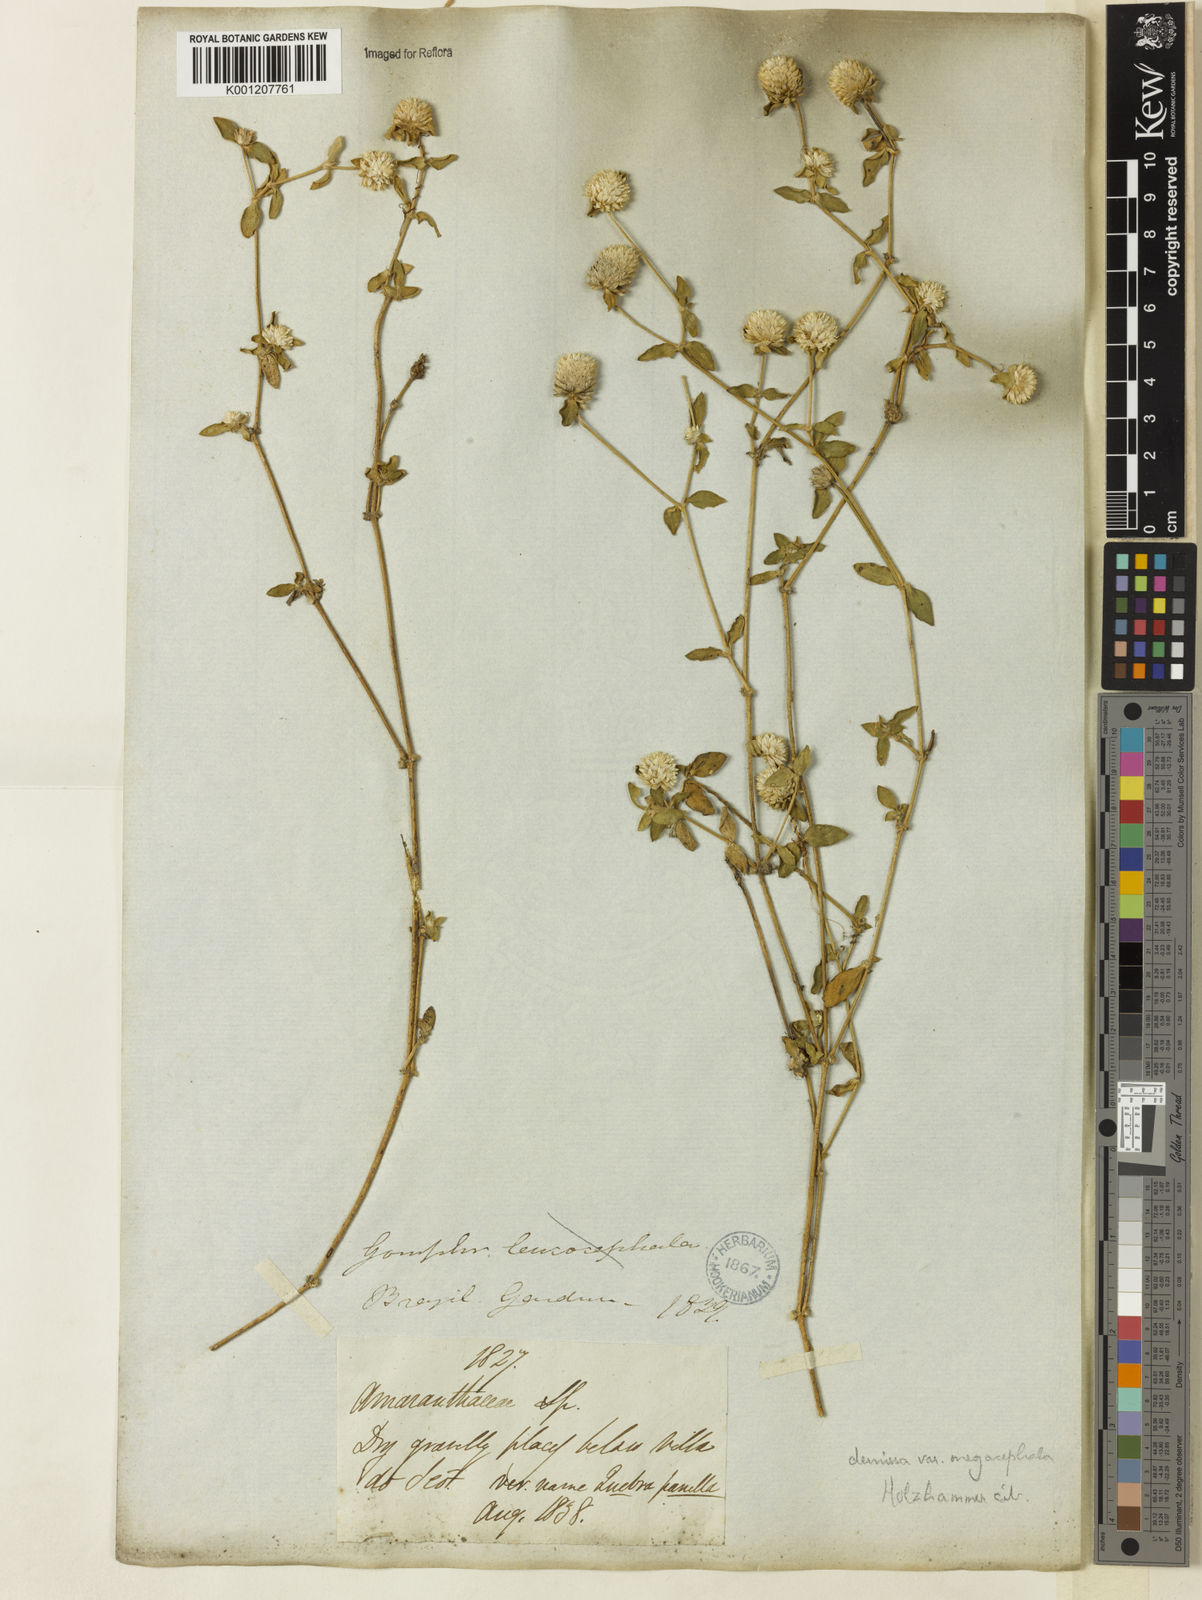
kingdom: Plantae
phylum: Tracheophyta
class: Magnoliopsida
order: Caryophyllales
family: Amaranthaceae
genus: Gomphrena
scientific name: Gomphrena demissa
